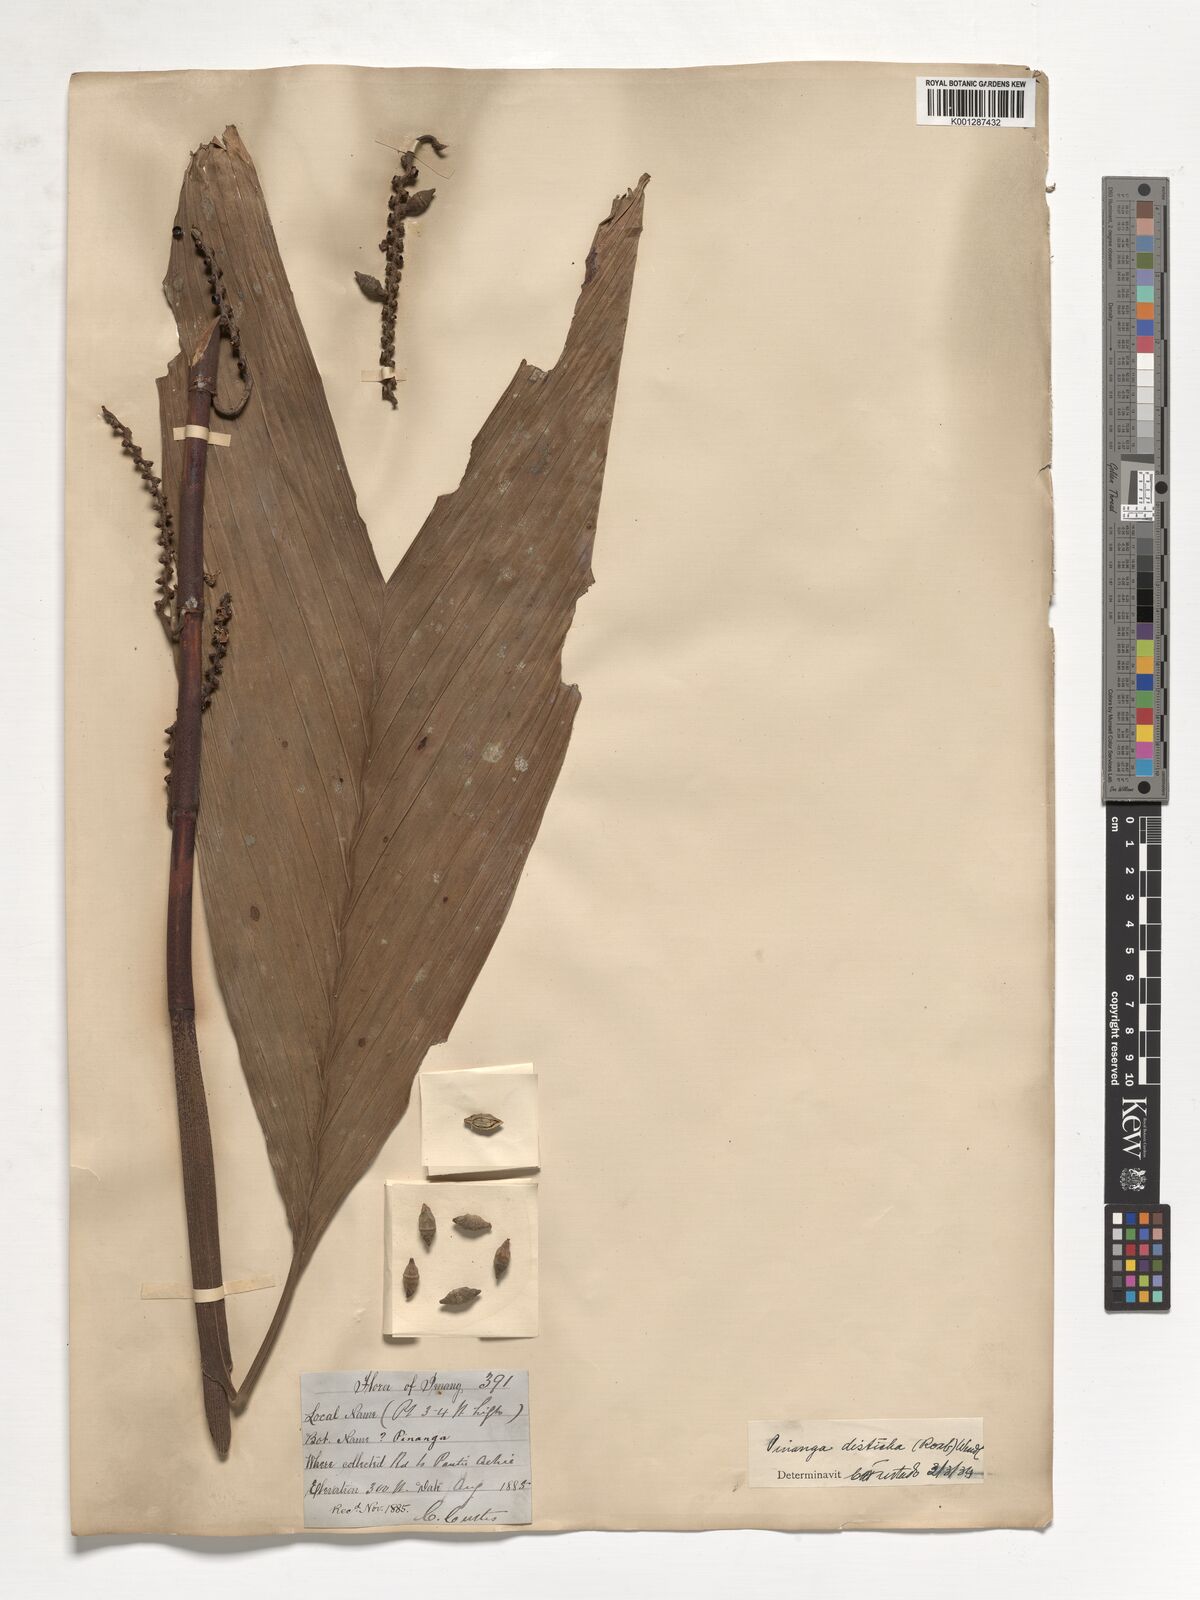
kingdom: Plantae
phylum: Tracheophyta
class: Liliopsida
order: Arecales
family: Arecaceae
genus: Pinanga
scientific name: Pinanga disticha
